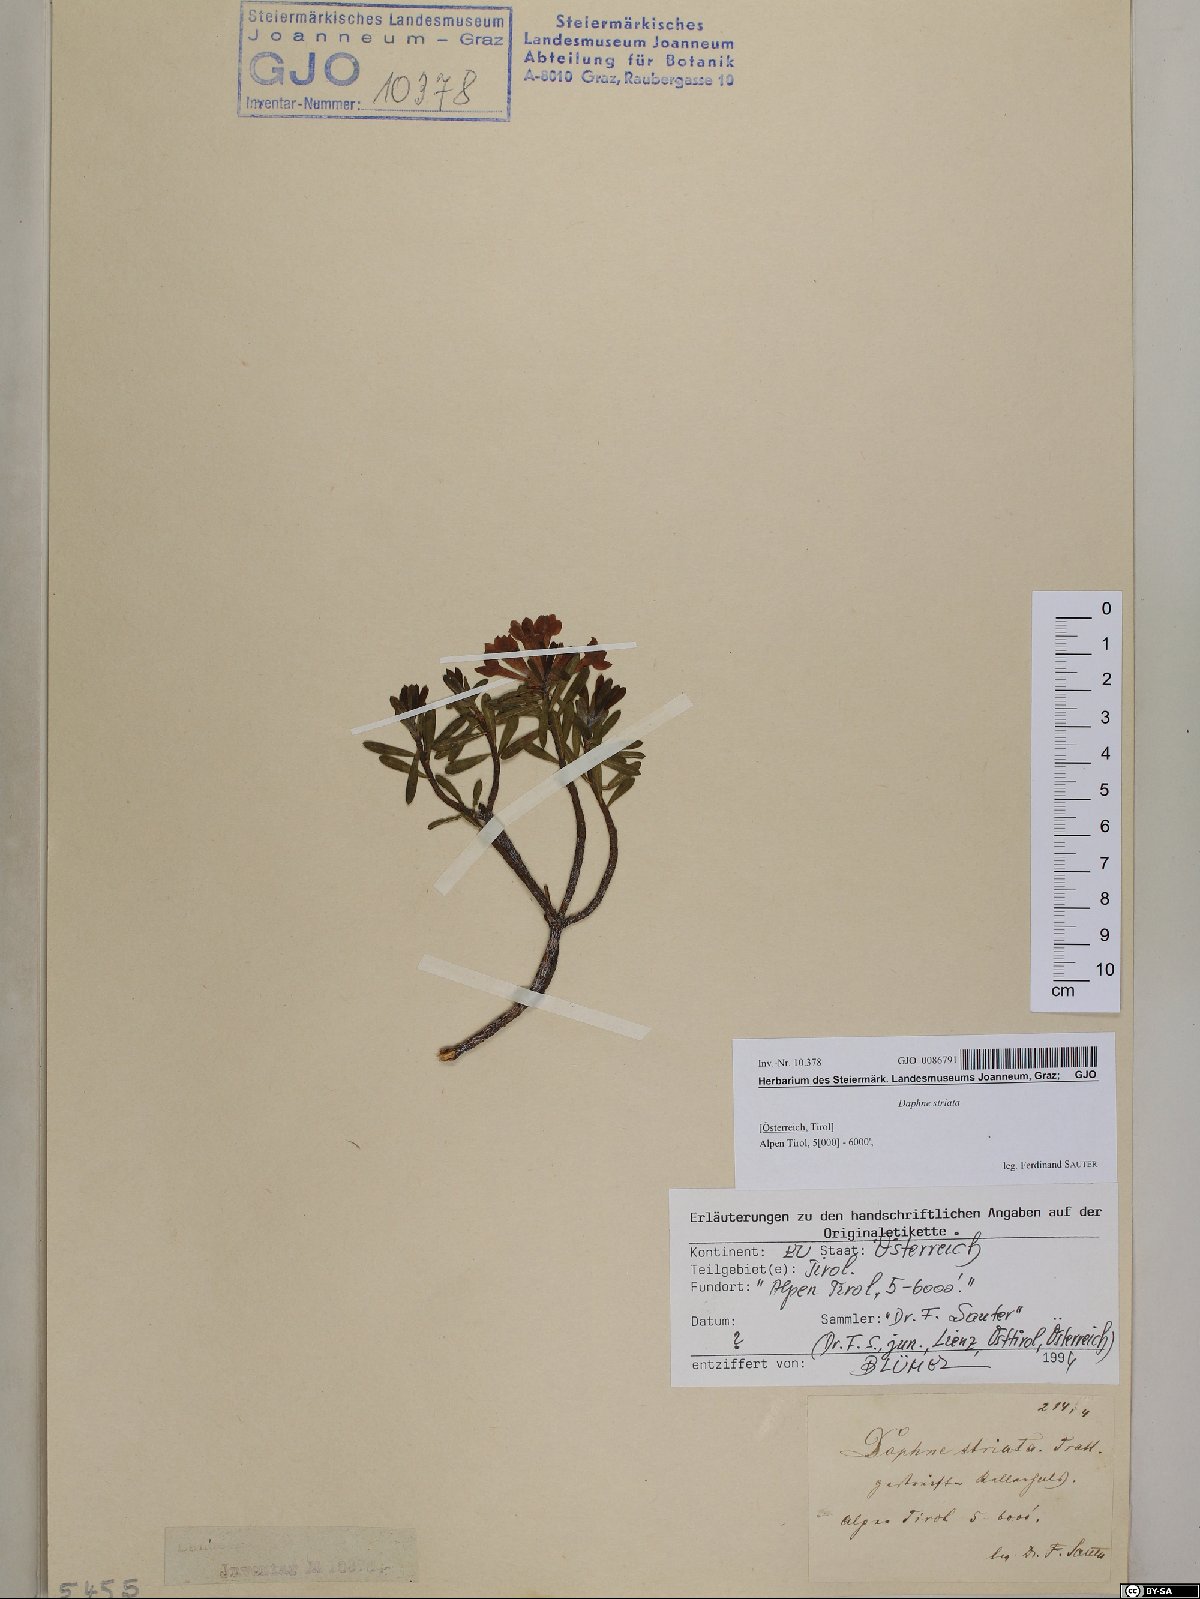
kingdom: Plantae
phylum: Tracheophyta
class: Magnoliopsida
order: Malvales
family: Thymelaeaceae
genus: Daphne
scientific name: Daphne striata
